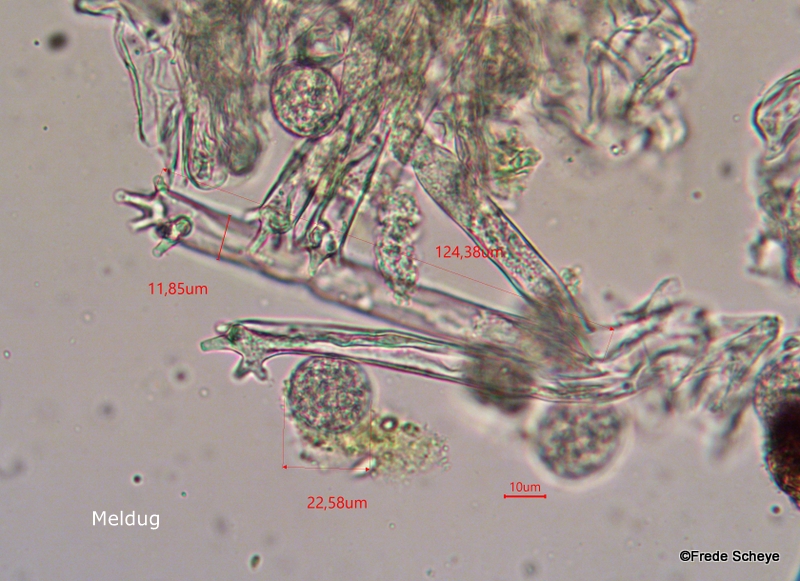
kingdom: Chromista
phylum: Oomycota
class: Peronosporea
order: Peronosporales
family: Peronosporaceae
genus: Plasmoverna
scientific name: Plasmoverna anemones-ranunculoidis
